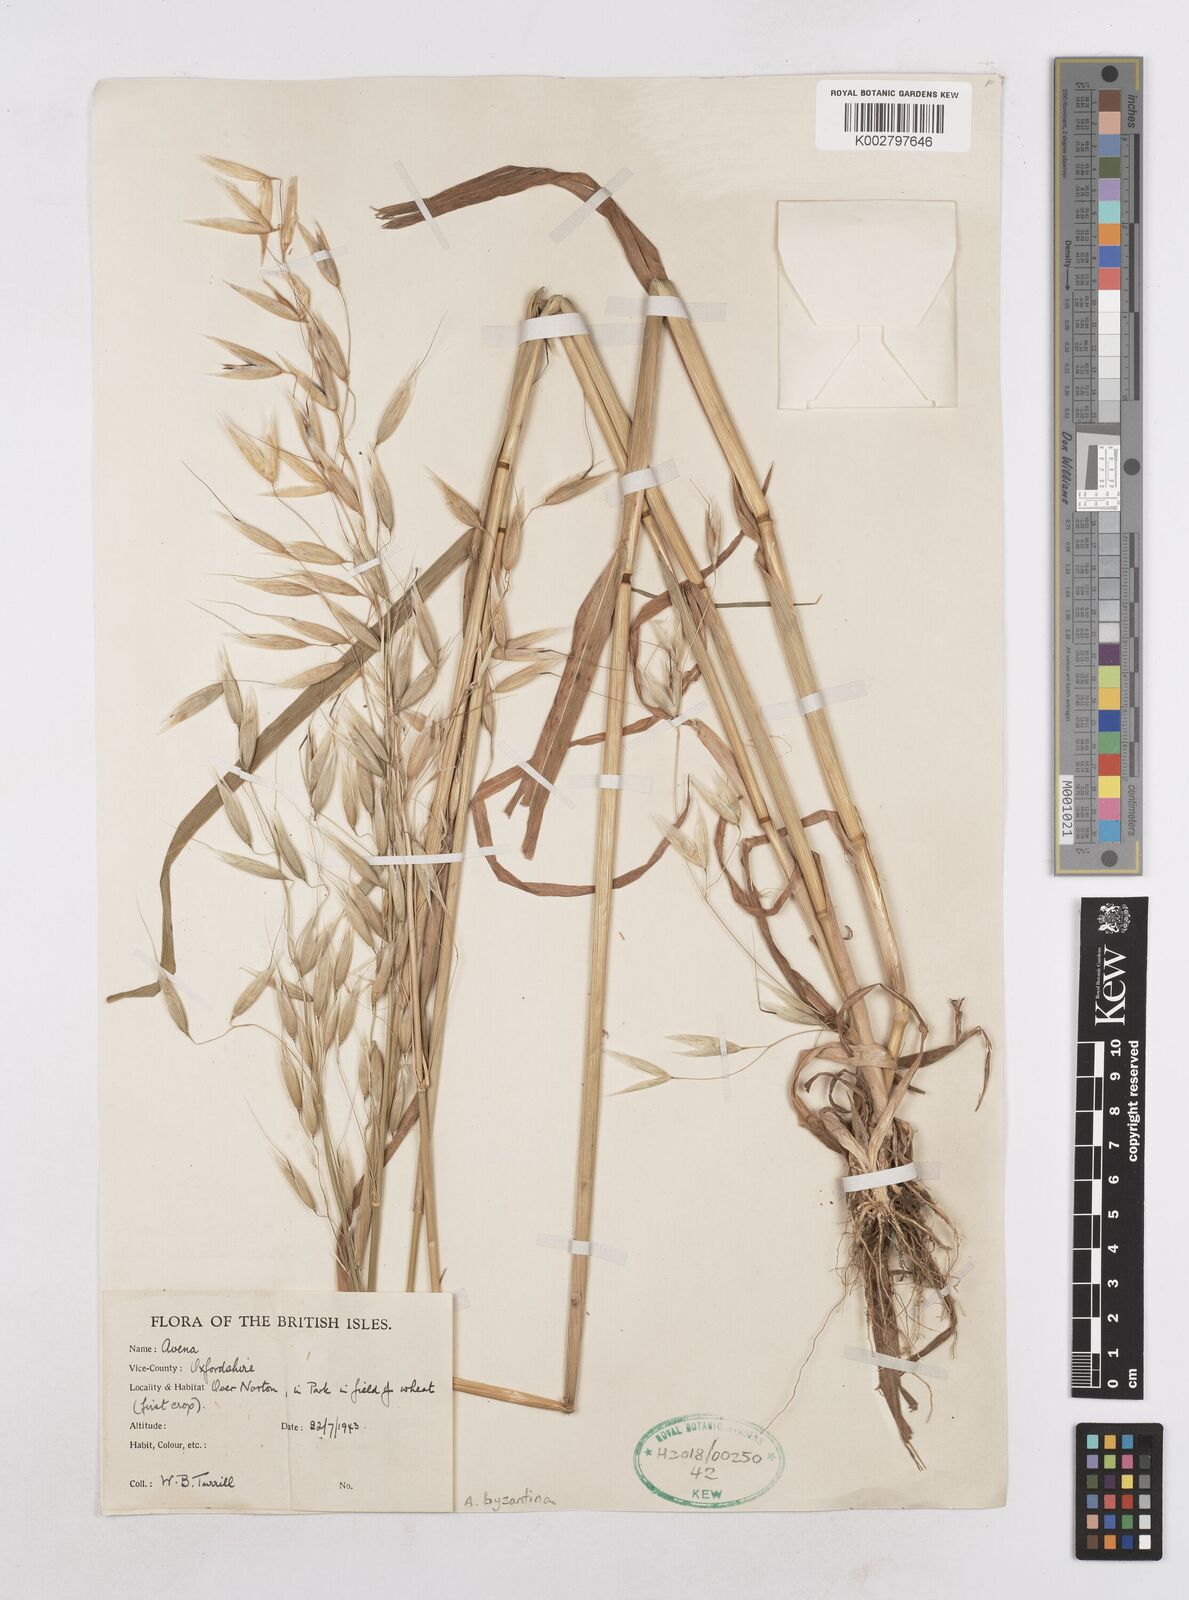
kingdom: Plantae
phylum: Tracheophyta
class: Liliopsida
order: Poales
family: Poaceae
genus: Avena
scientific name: Avena byzantina
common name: Algerian oat
